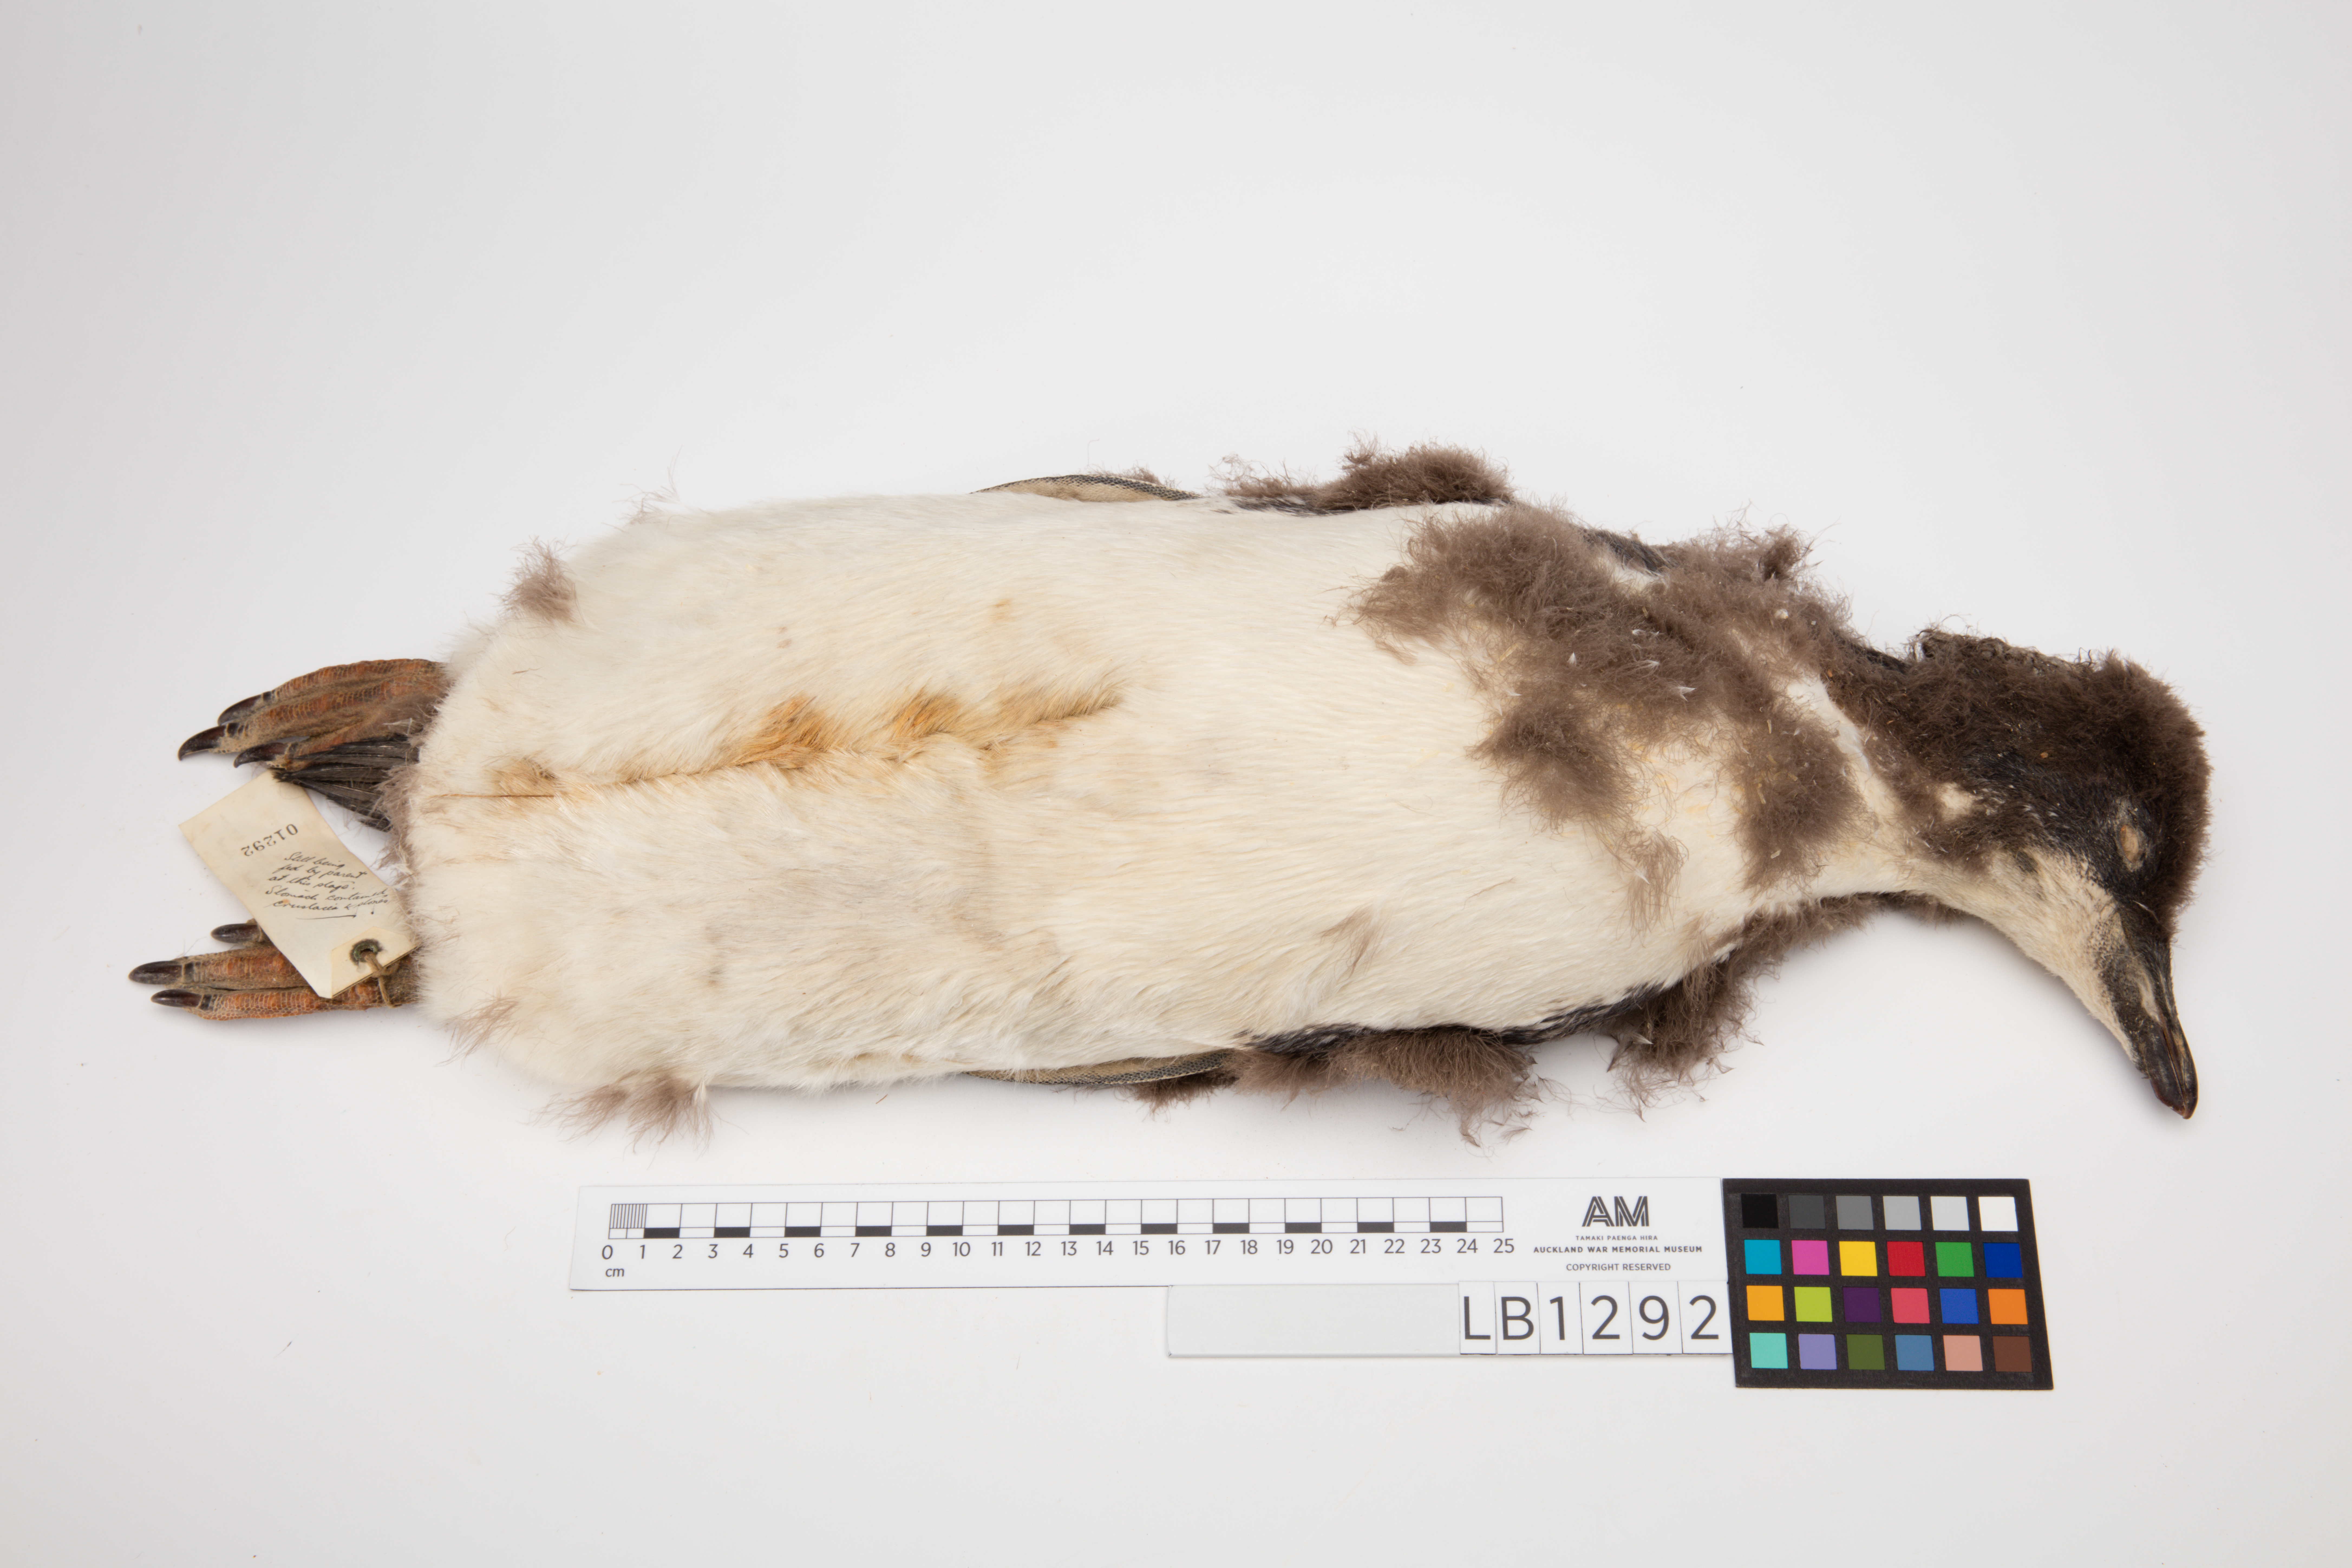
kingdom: Animalia
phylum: Chordata
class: Aves
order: Sphenisciformes
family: Spheniscidae
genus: Pygoscelis
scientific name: Pygoscelis adeliae
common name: Adelie penguin
